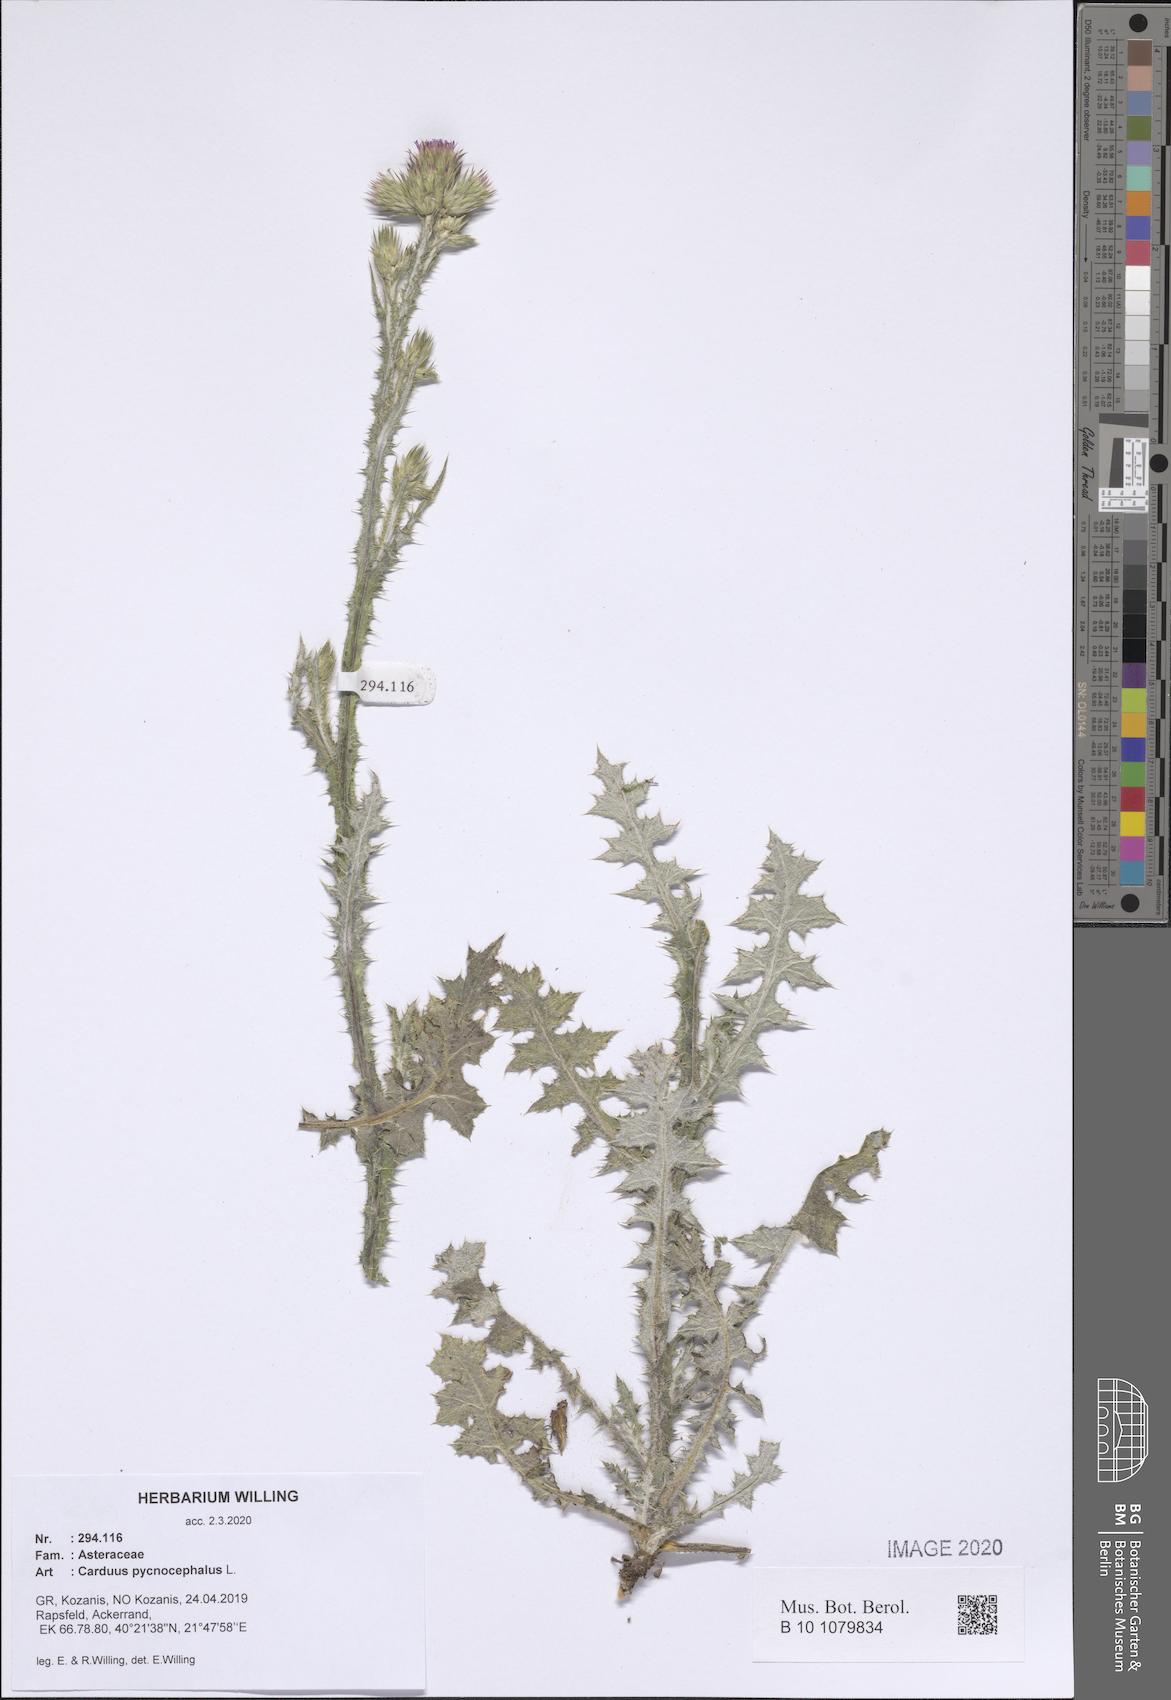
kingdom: Plantae
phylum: Tracheophyta
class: Magnoliopsida
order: Asterales
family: Asteraceae
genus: Carduus
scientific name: Carduus pycnocephalus
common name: Plymouth thistle
